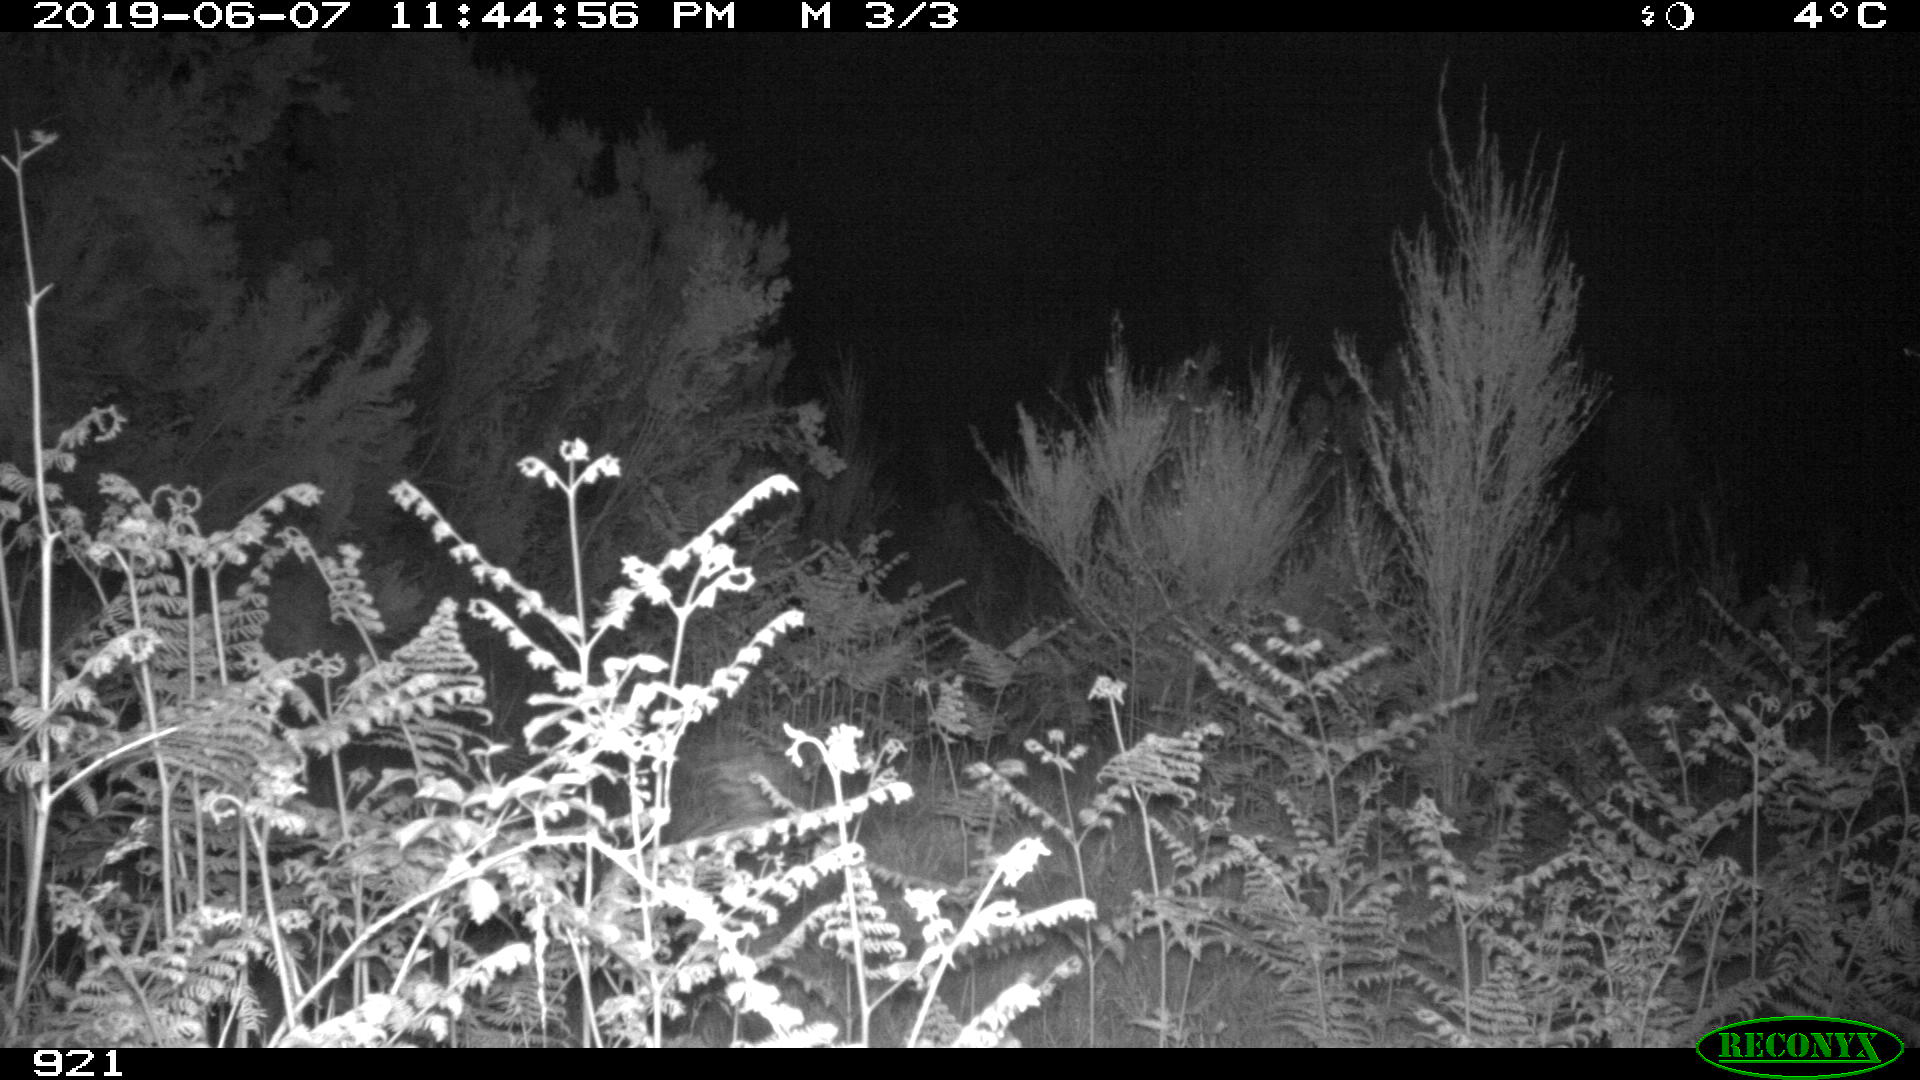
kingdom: Animalia
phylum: Chordata
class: Mammalia
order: Artiodactyla
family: Suidae
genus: Sus
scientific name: Sus scrofa
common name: Wild boar
